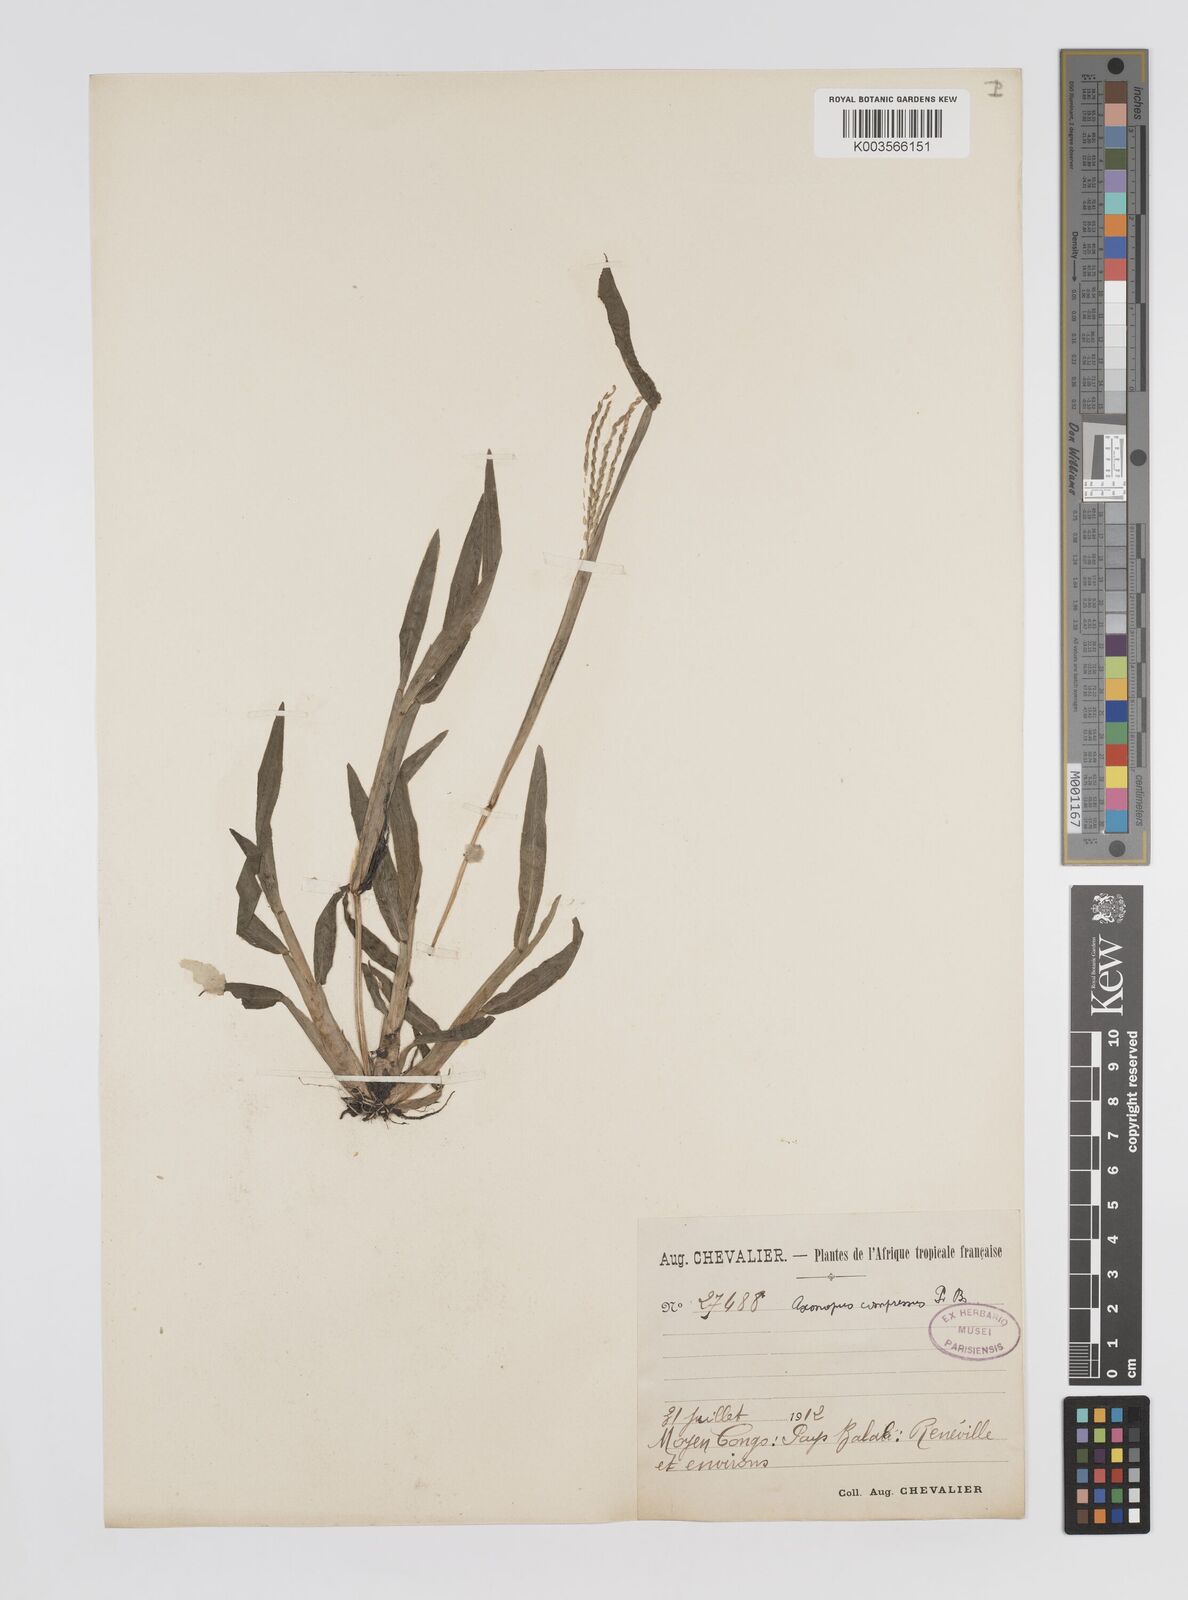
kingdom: Plantae
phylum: Tracheophyta
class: Liliopsida
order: Poales
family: Poaceae
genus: Axonopus
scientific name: Axonopus compressus
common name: American carpet grass
